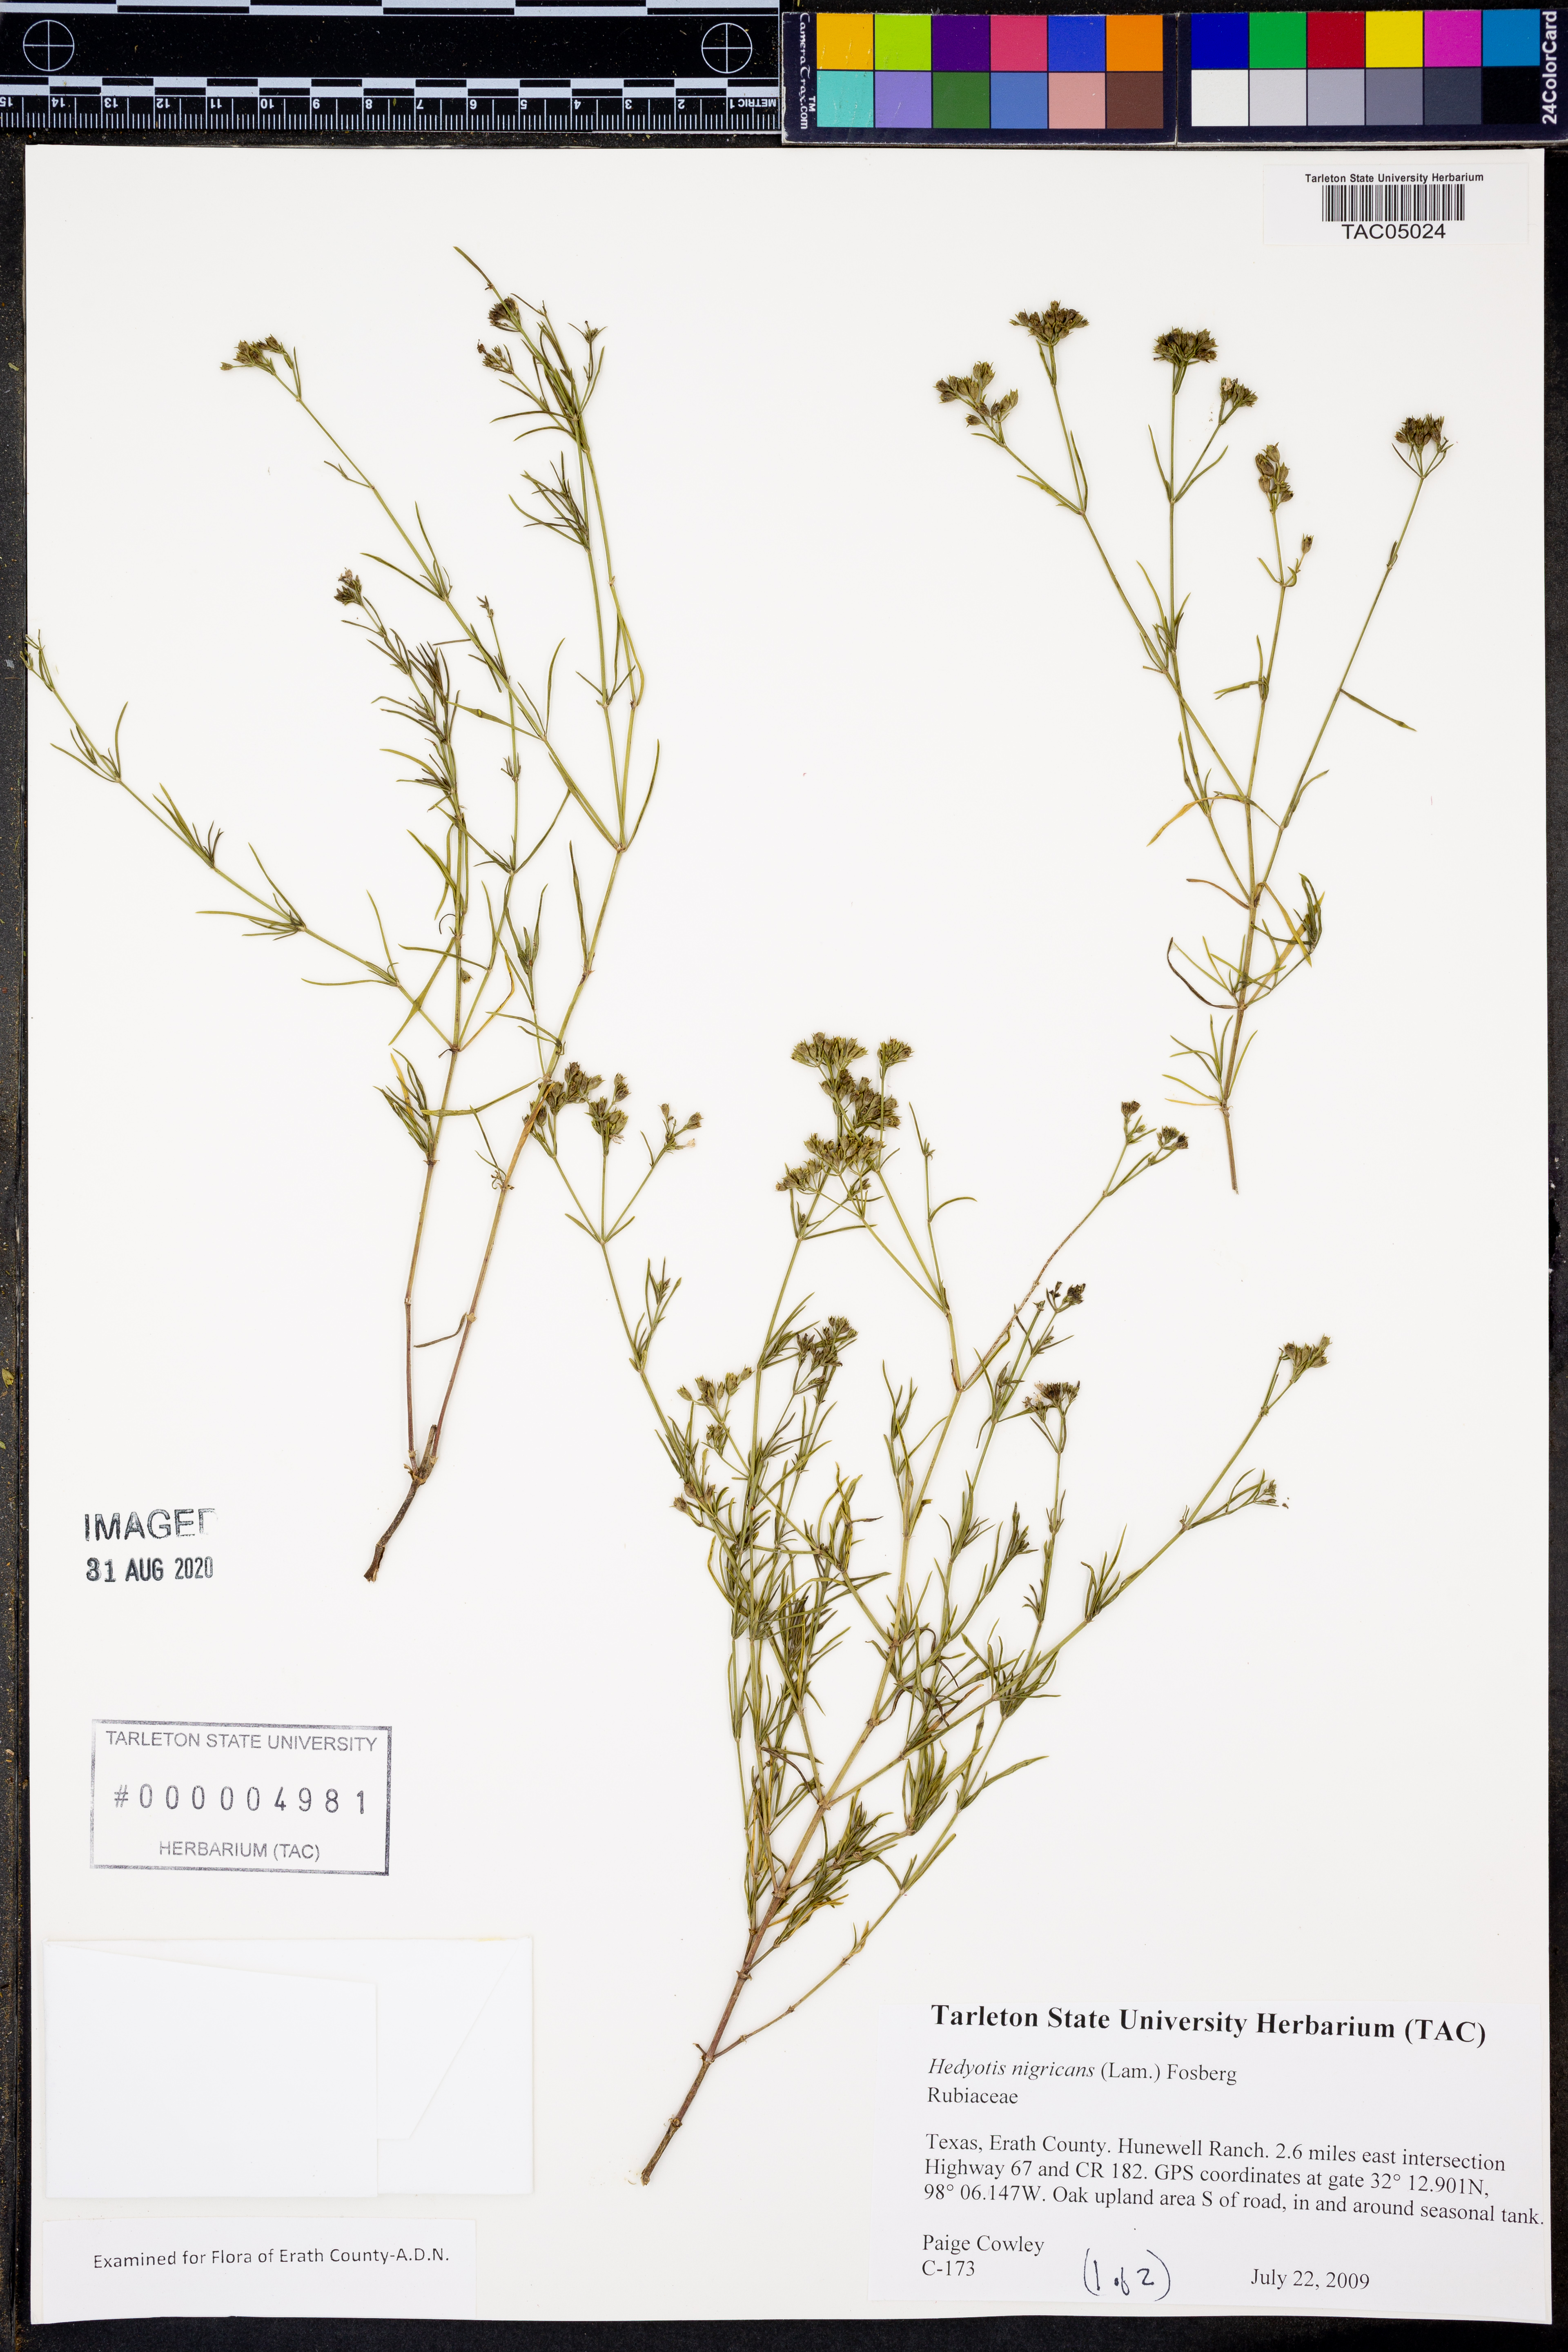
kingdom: Plantae
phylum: Tracheophyta
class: Magnoliopsida
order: Gentianales
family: Rubiaceae
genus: Stenaria
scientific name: Stenaria nigricans
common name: Diamondflowers
